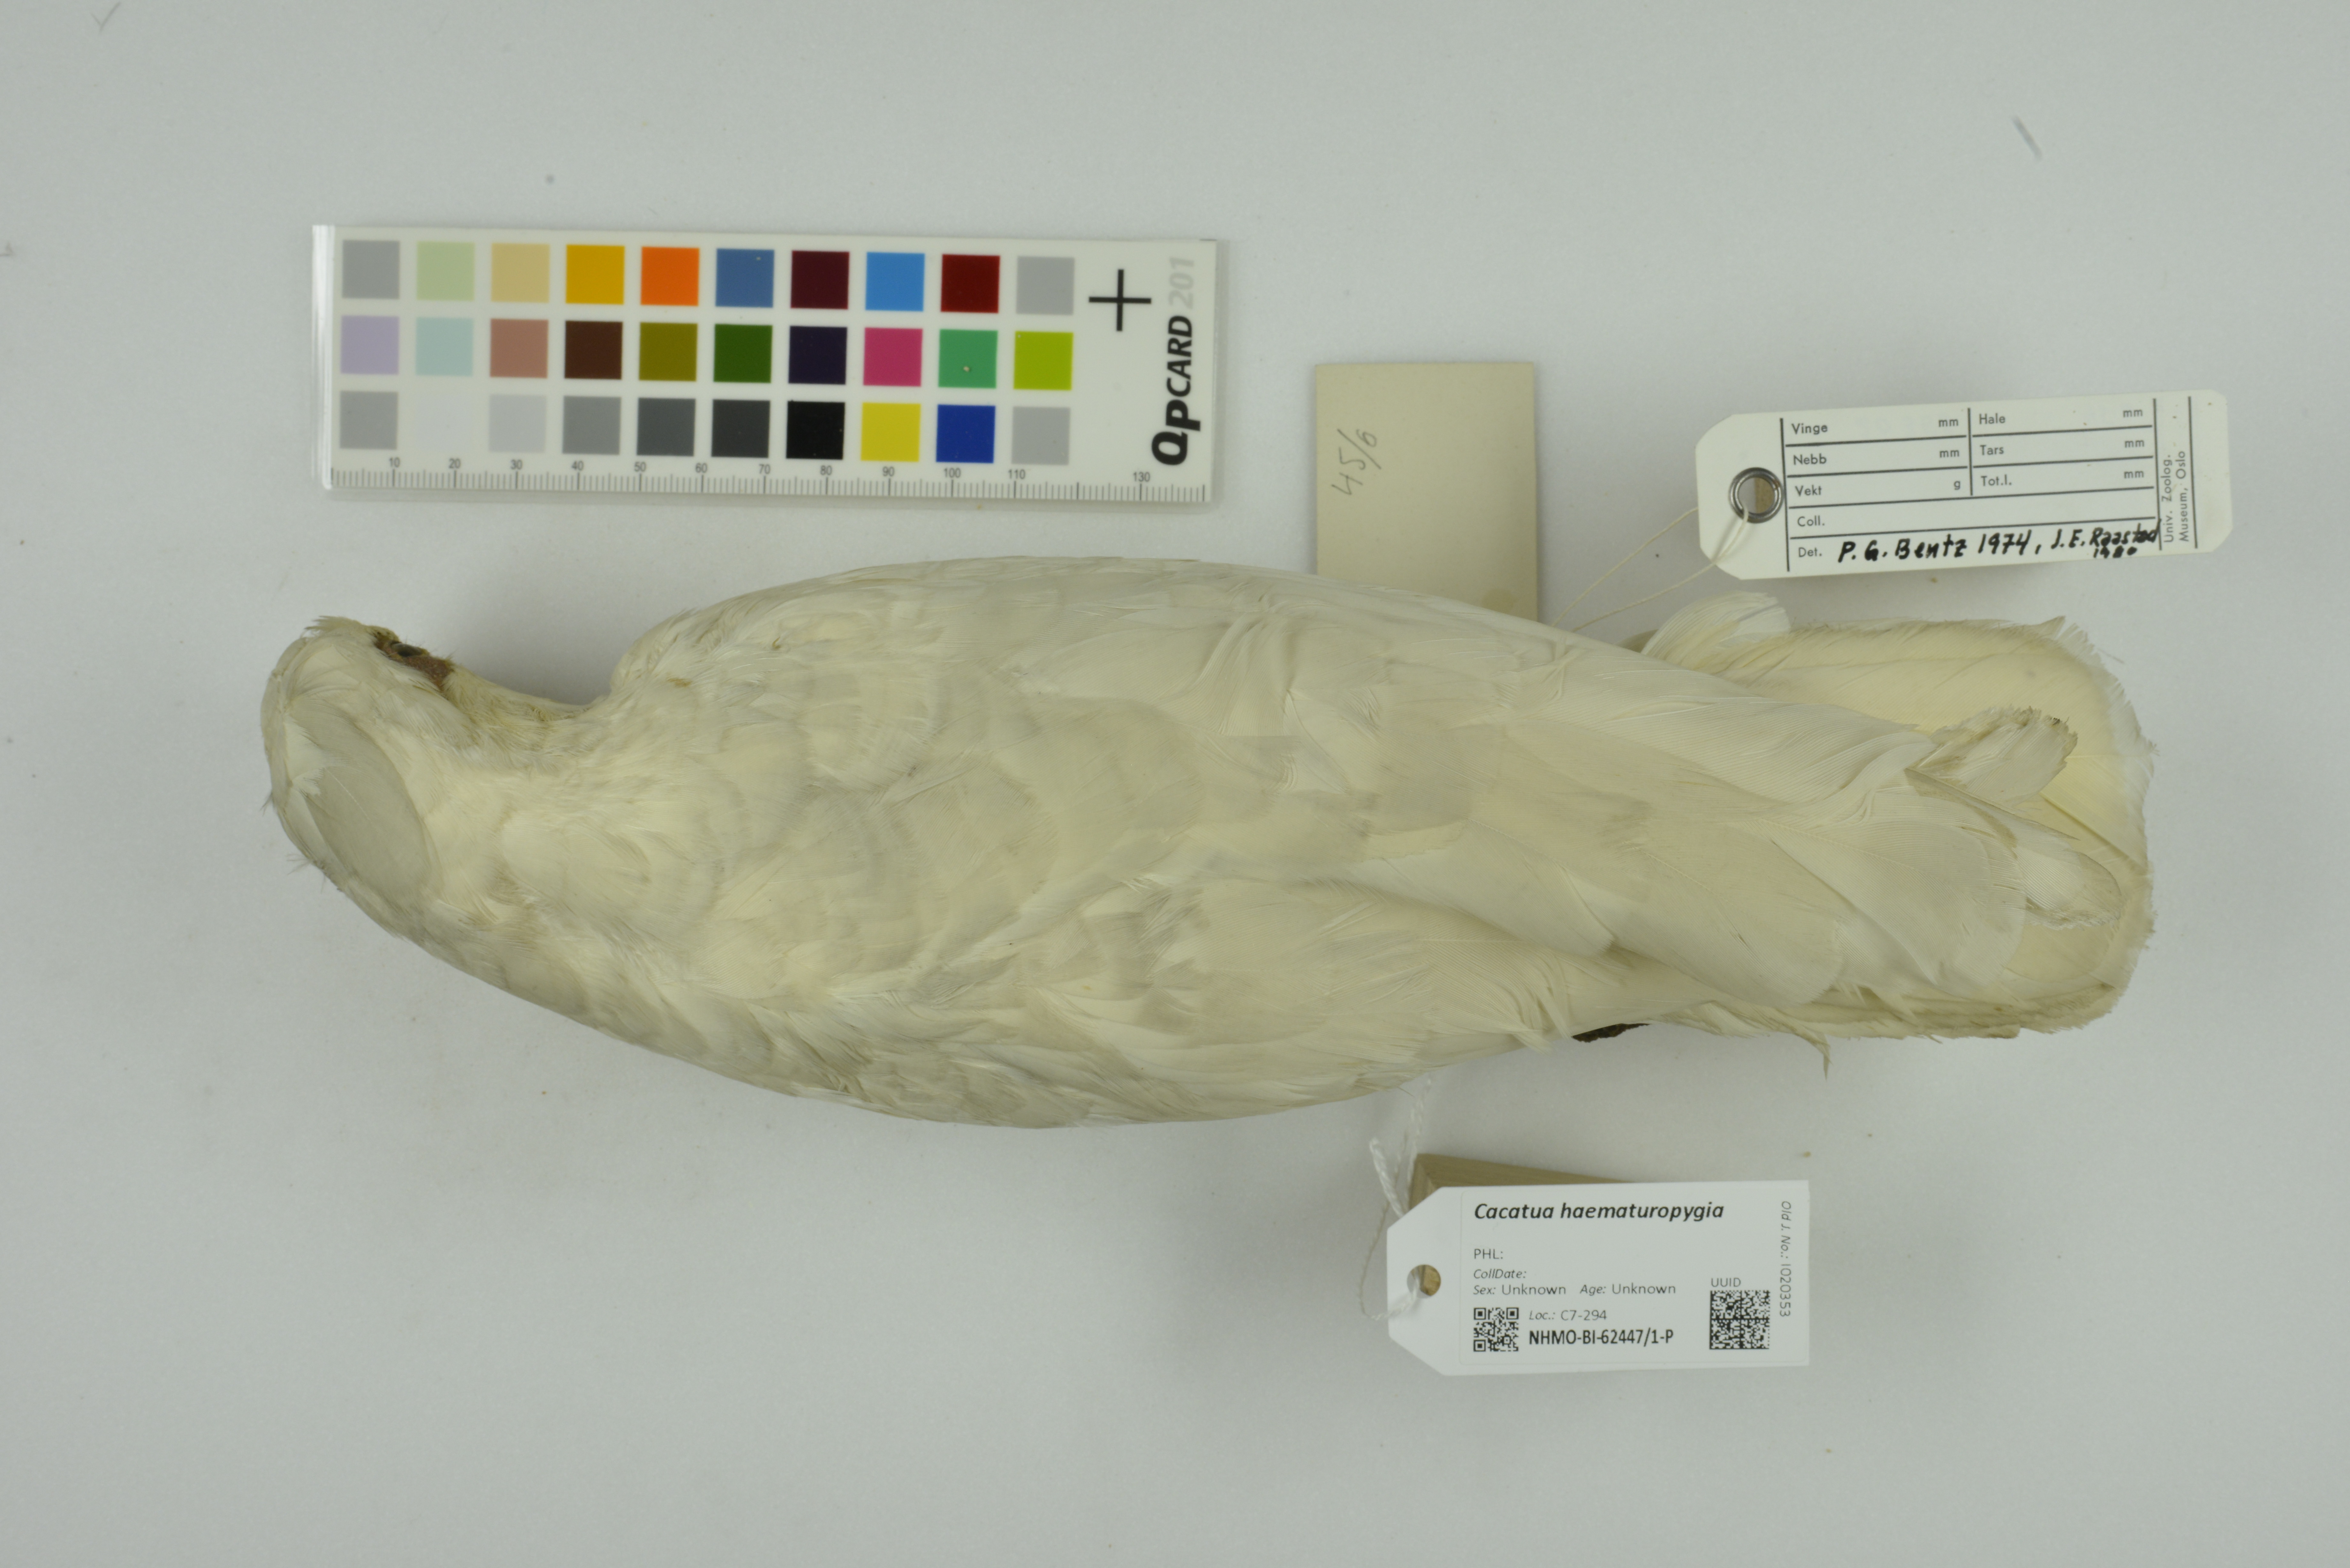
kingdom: Animalia
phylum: Chordata
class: Aves
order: Psittaciformes
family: Psittacidae
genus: Cacatua
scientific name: Cacatua haematuropygia
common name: Red-vented cockatoo
